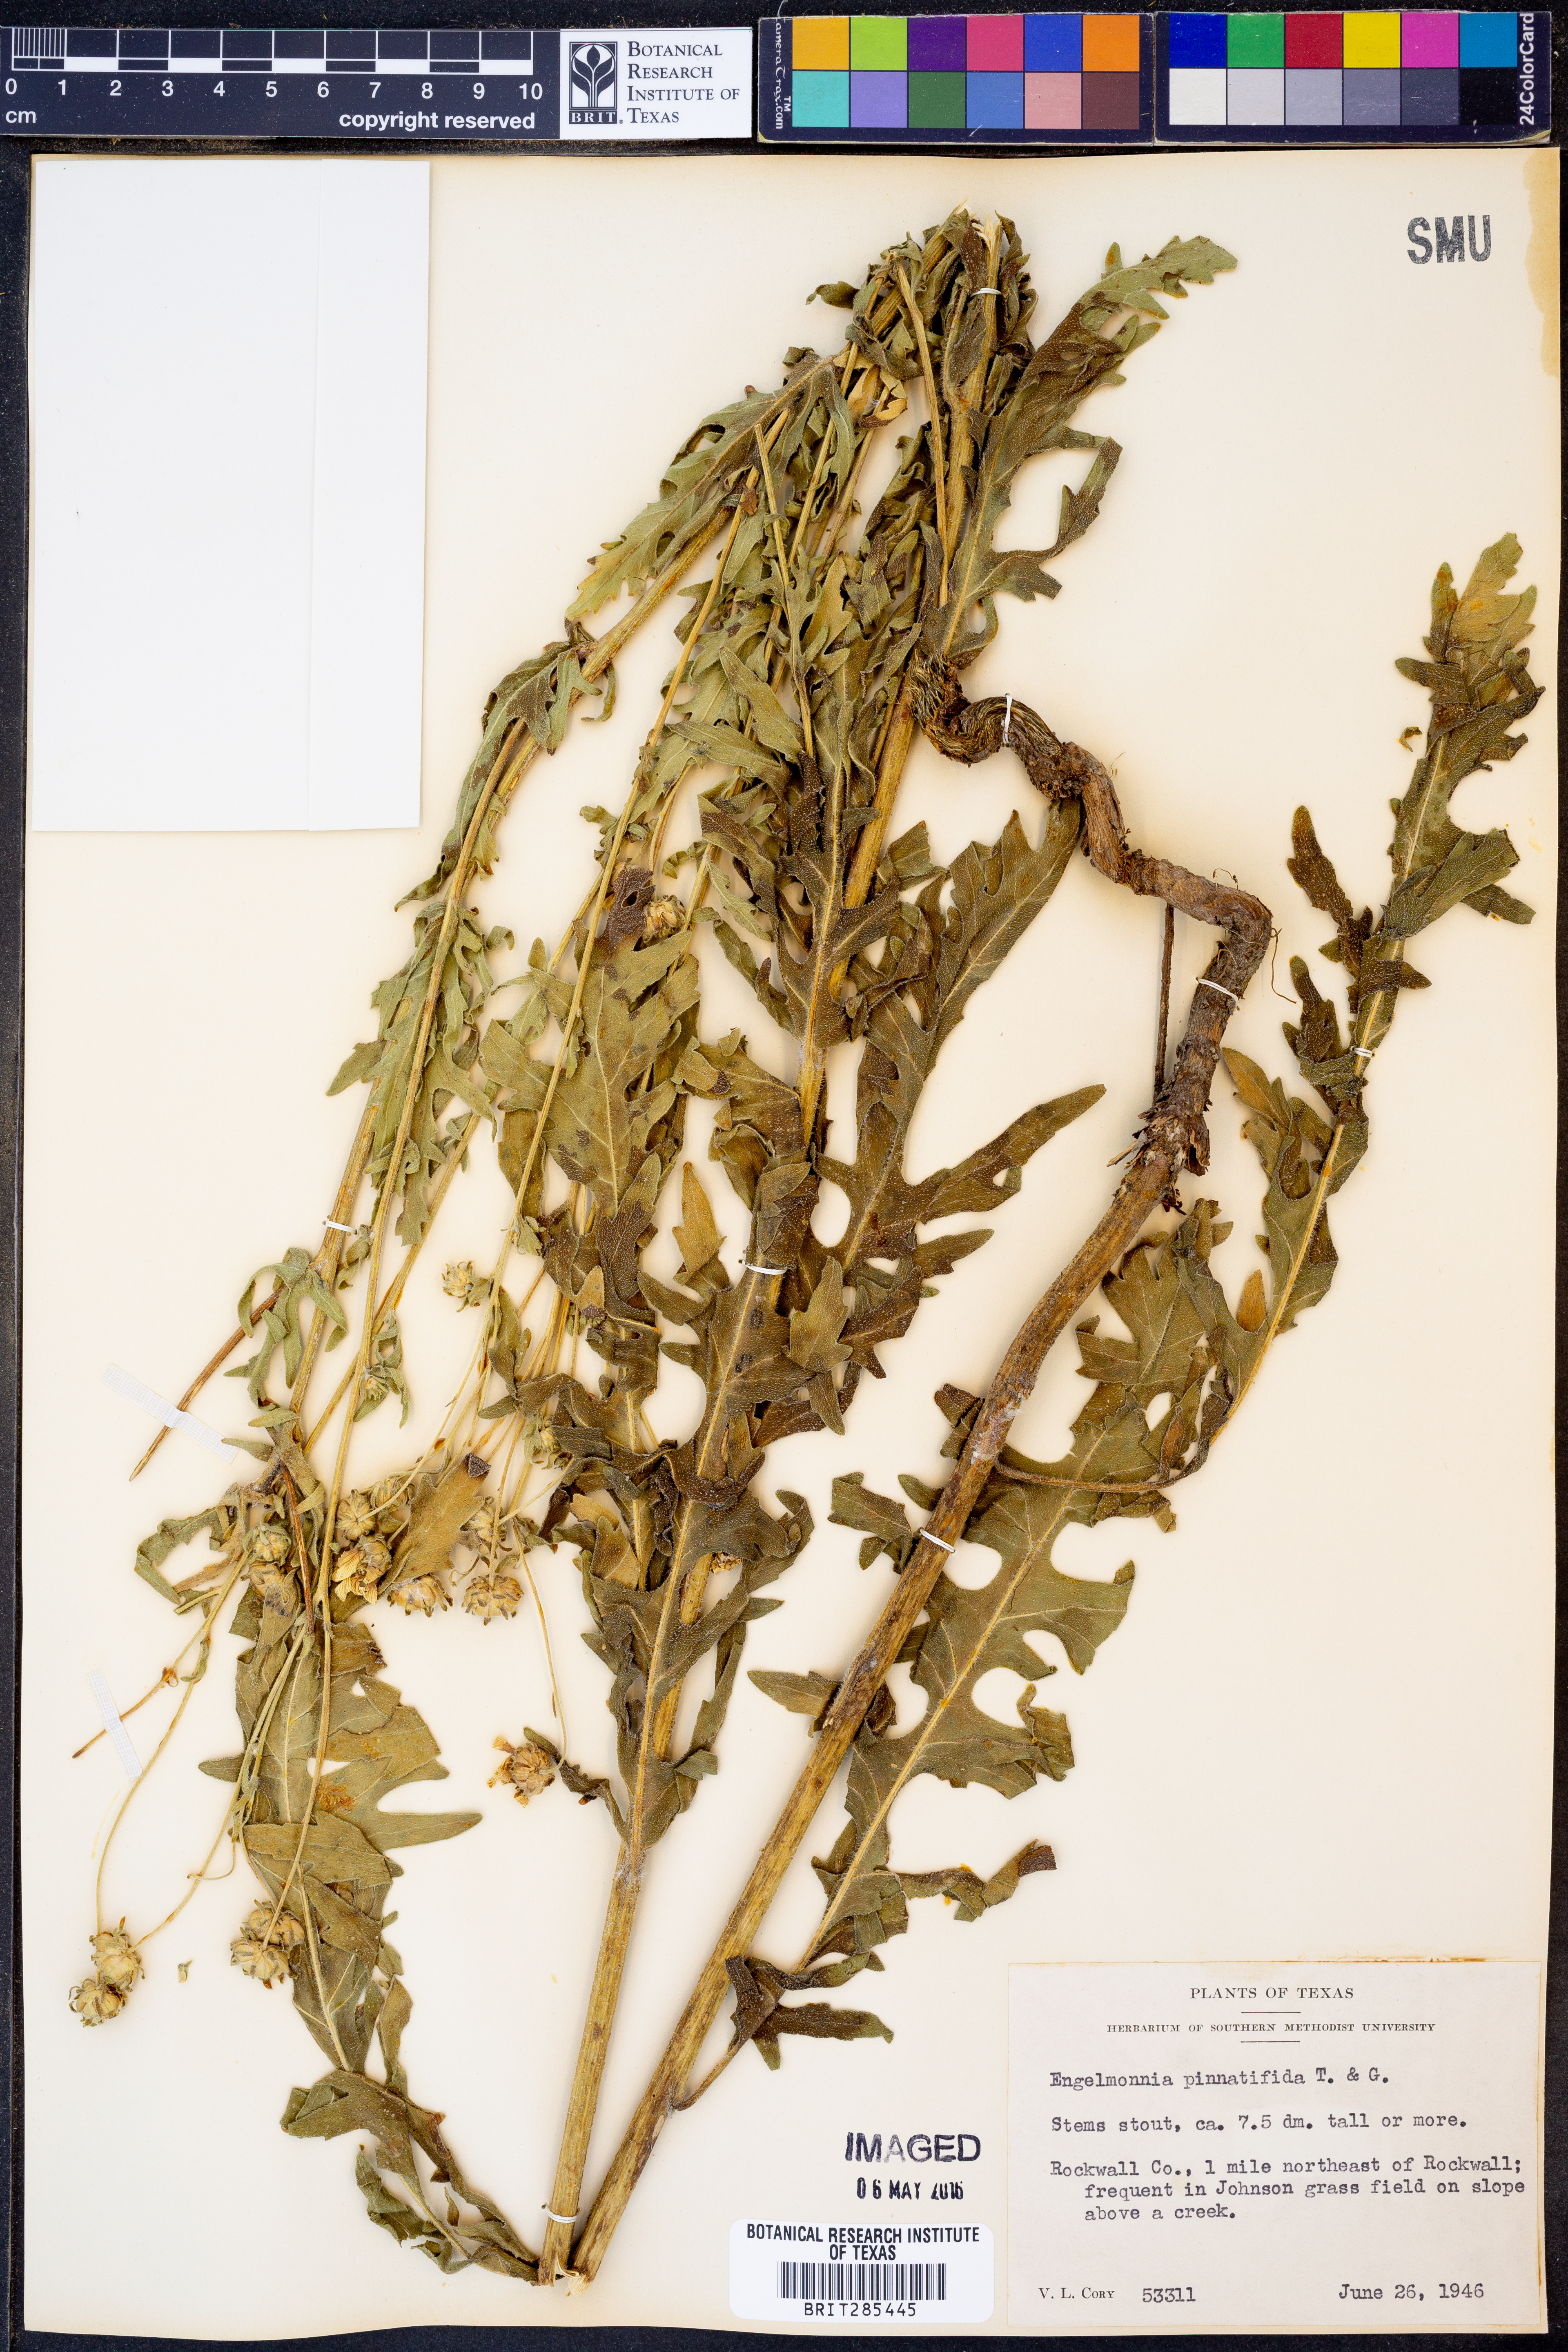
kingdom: Plantae
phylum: Tracheophyta
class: Magnoliopsida
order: Asterales
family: Asteraceae
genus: Engelmannia
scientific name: Engelmannia peristenia
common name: Engelmann's daisy
